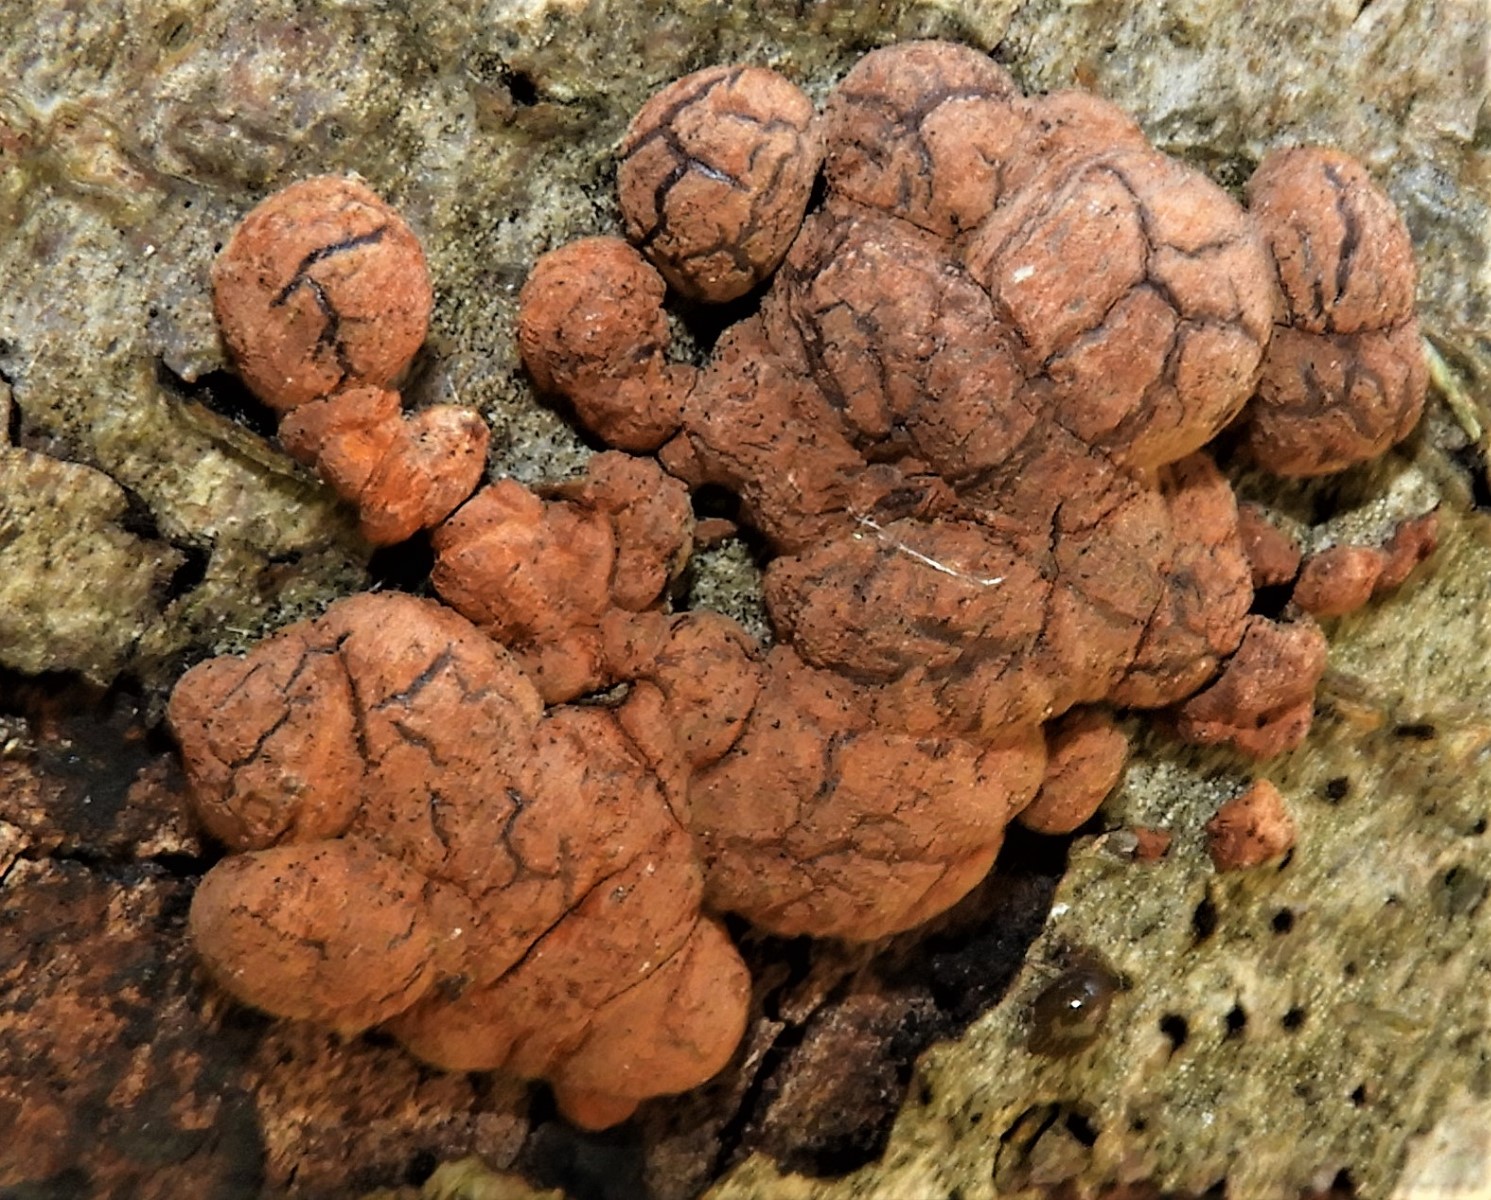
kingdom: Fungi
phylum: Ascomycota
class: Sordariomycetes
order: Xylariales
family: Hypoxylaceae
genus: Hypoxylon
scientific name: Hypoxylon fragiforme
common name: kuljordbær
